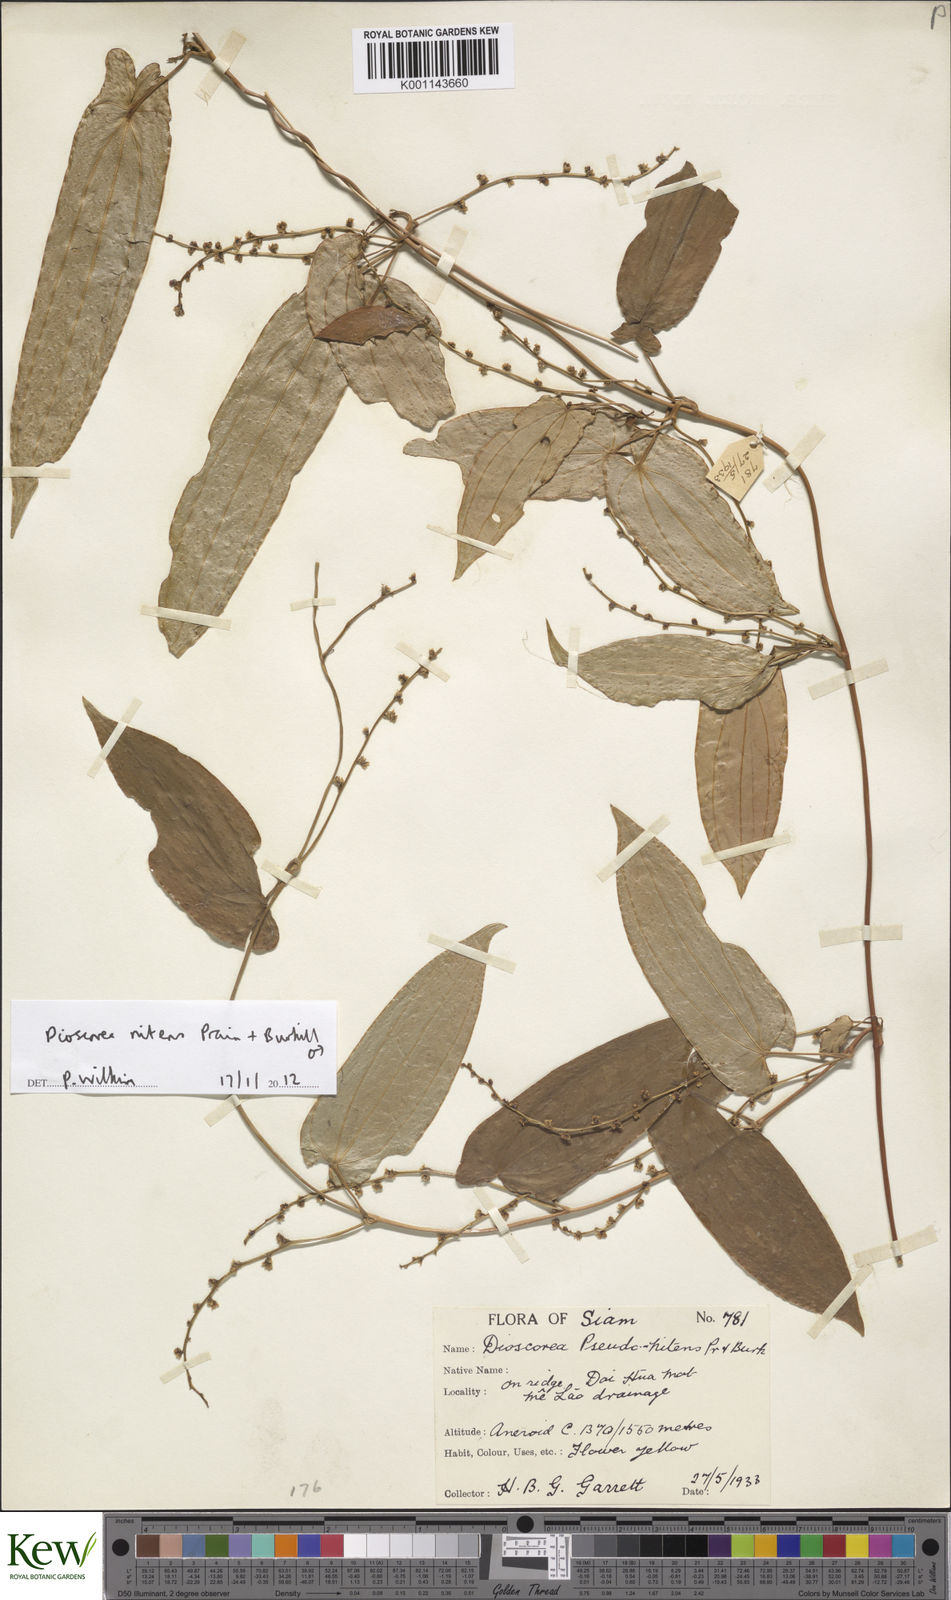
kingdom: Plantae
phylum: Tracheophyta
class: Liliopsida
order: Dioscoreales
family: Dioscoreaceae
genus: Dioscorea
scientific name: Dioscorea nitens
